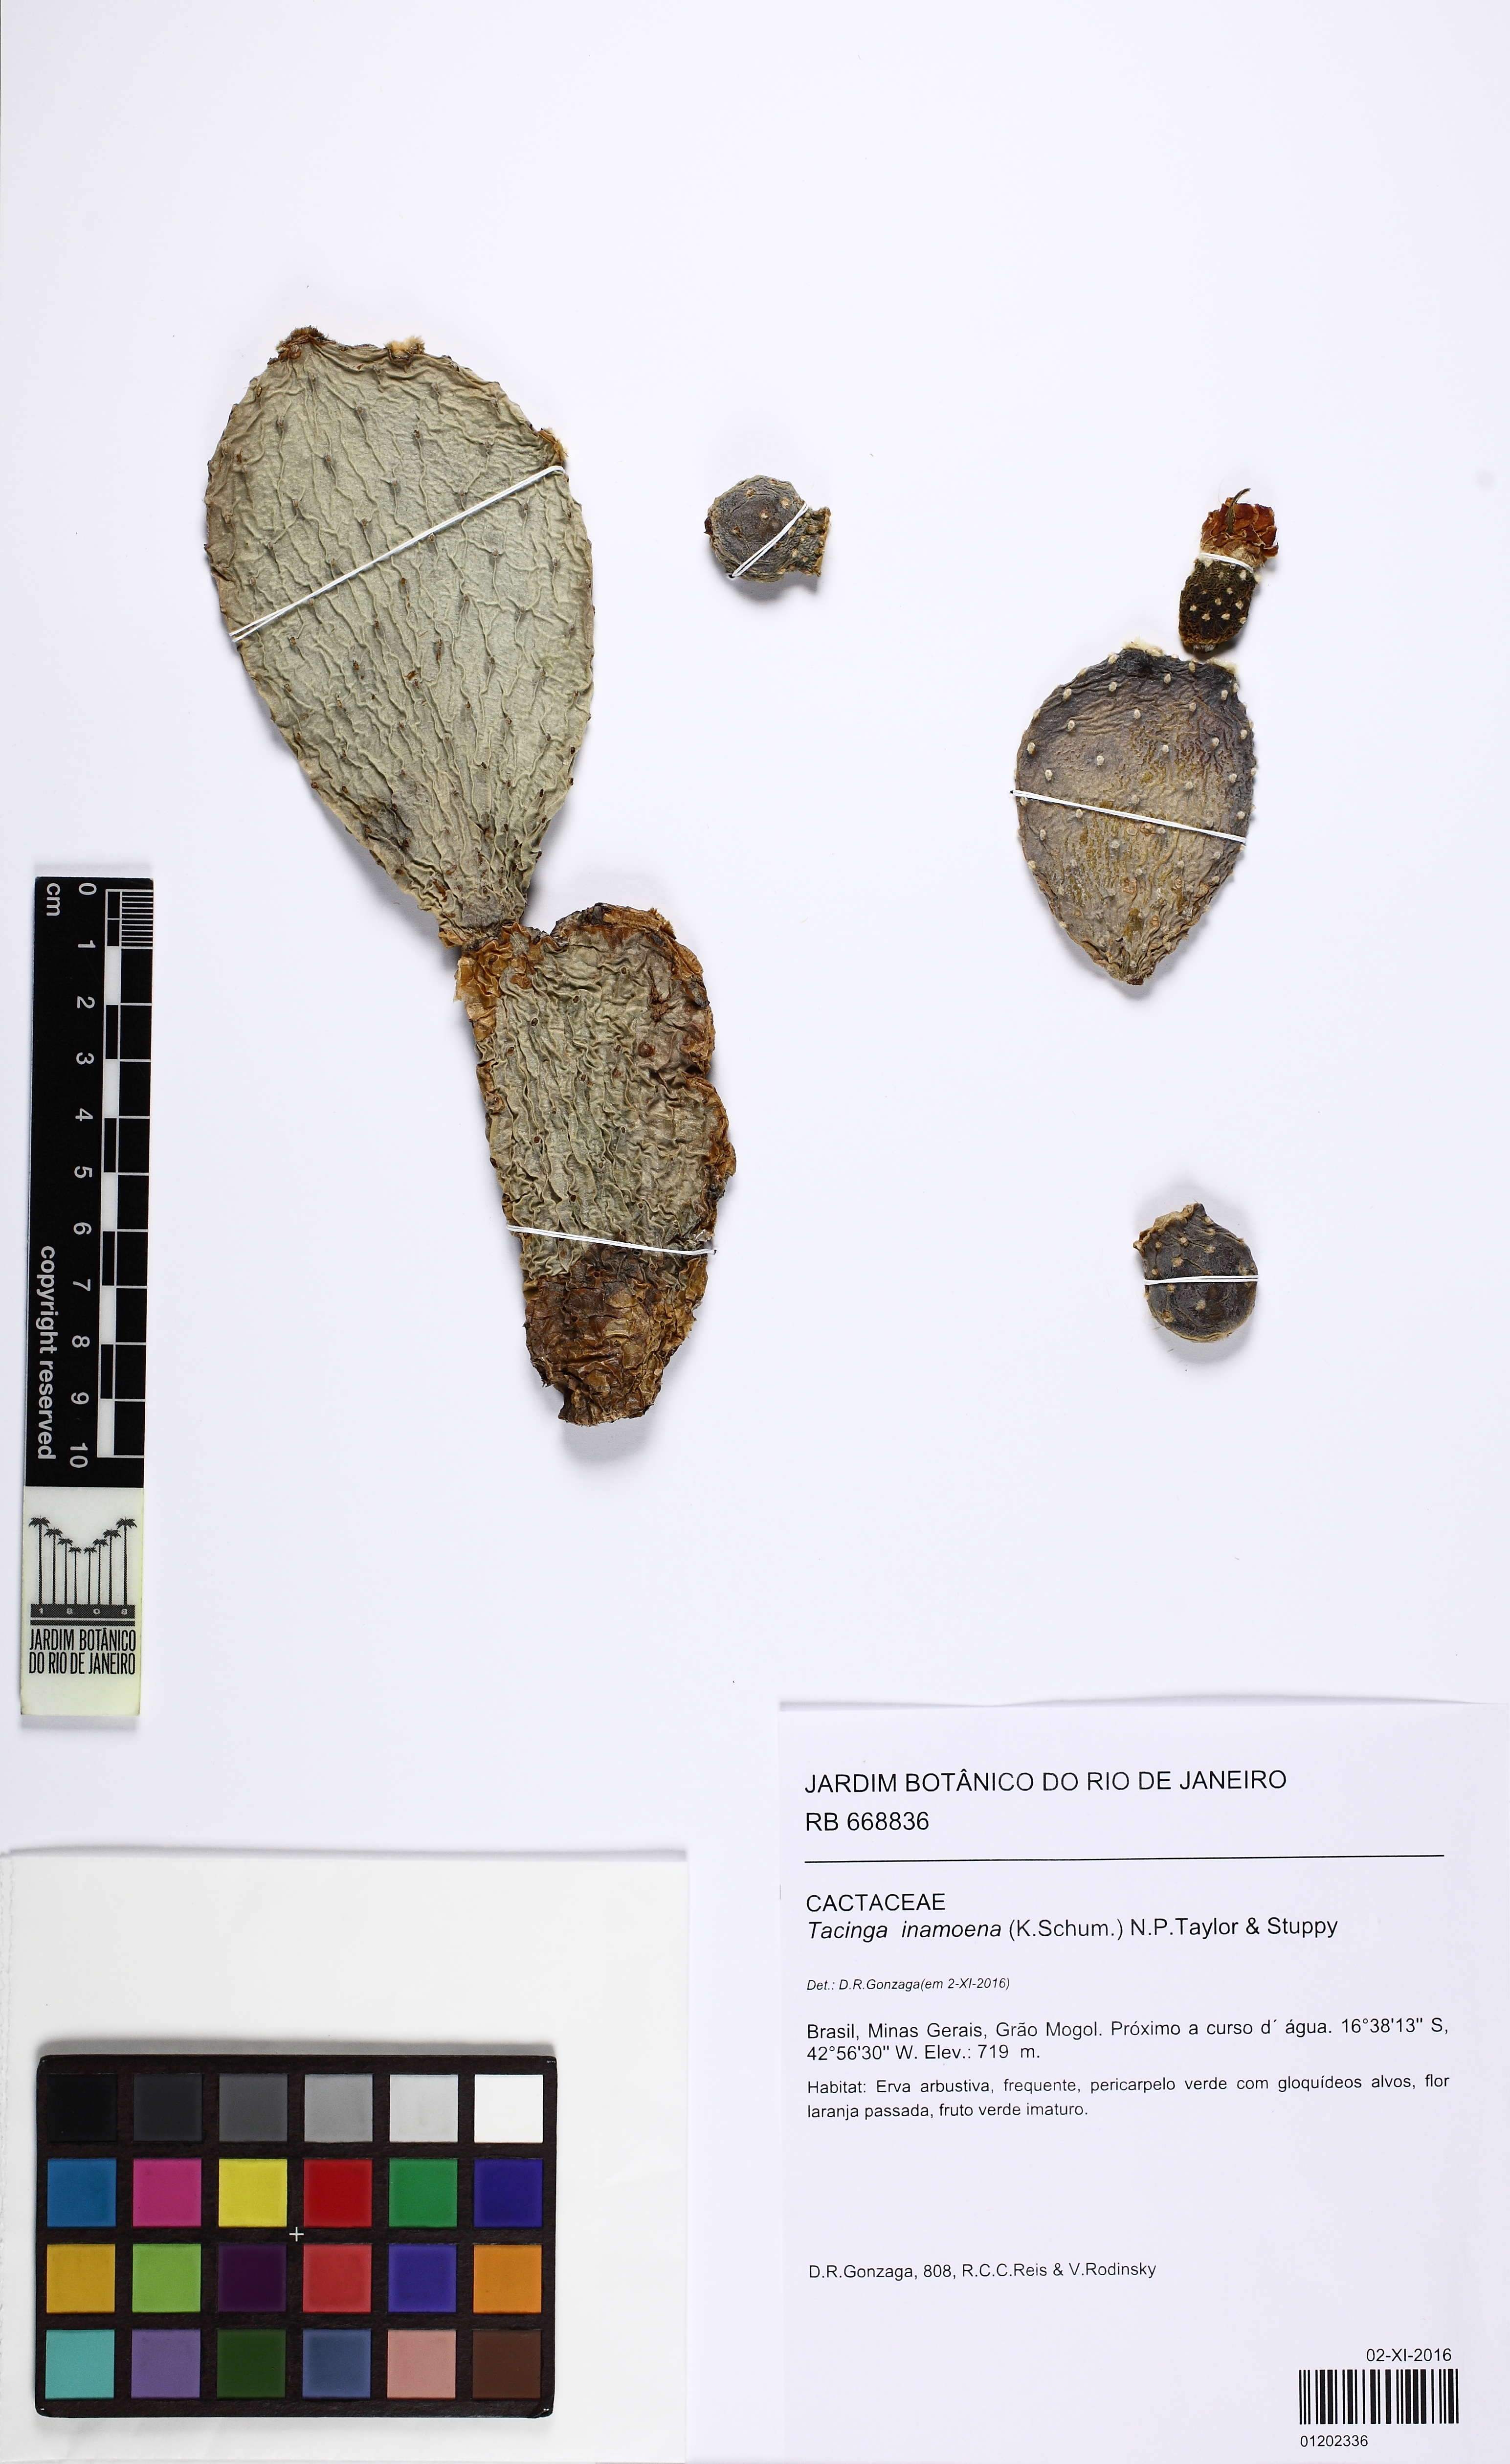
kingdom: Plantae
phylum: Tracheophyta
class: Magnoliopsida
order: Caryophyllales
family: Cactaceae
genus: Tacinga
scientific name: Tacinga inamoena
